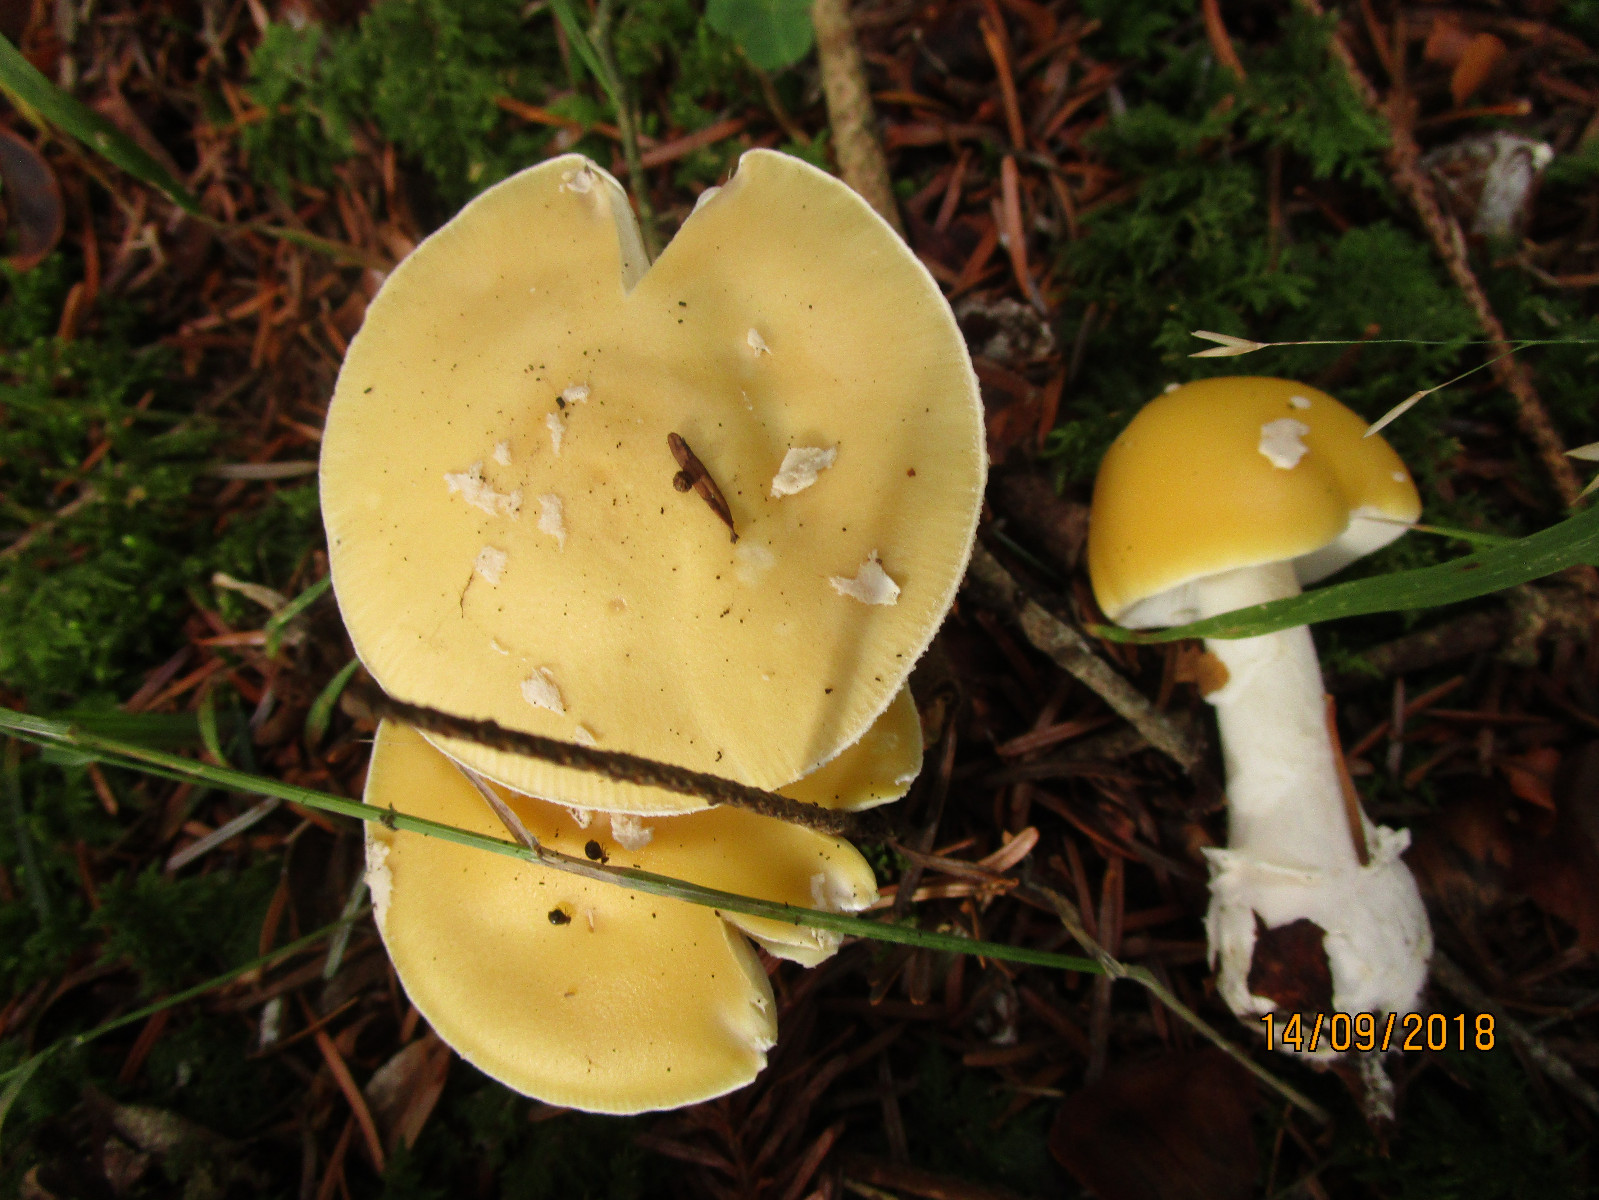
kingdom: Fungi
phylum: Basidiomycota
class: Agaricomycetes
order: Agaricales
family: Amanitaceae
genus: Amanita
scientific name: Amanita gemmata
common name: okkergul fluesvamp
